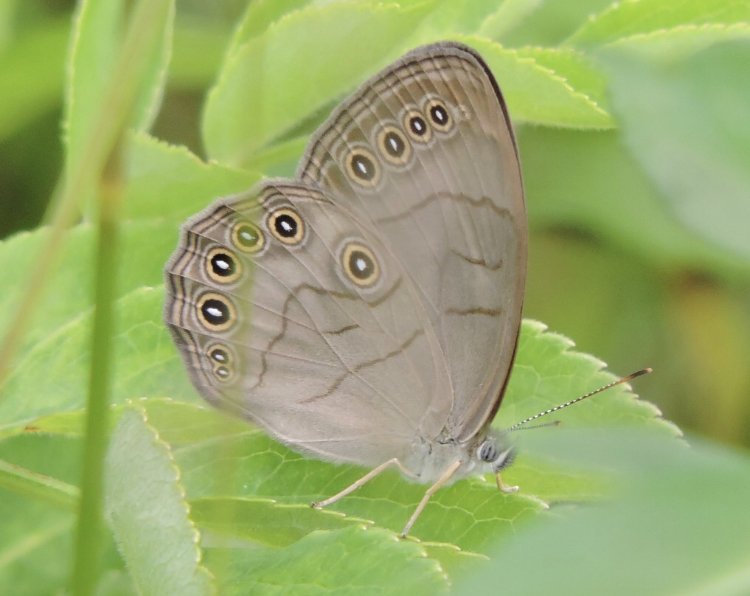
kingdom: Animalia
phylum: Arthropoda
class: Insecta
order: Lepidoptera
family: Nymphalidae
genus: Lethe
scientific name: Lethe eurydice
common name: Appalachian Eyed Brown
